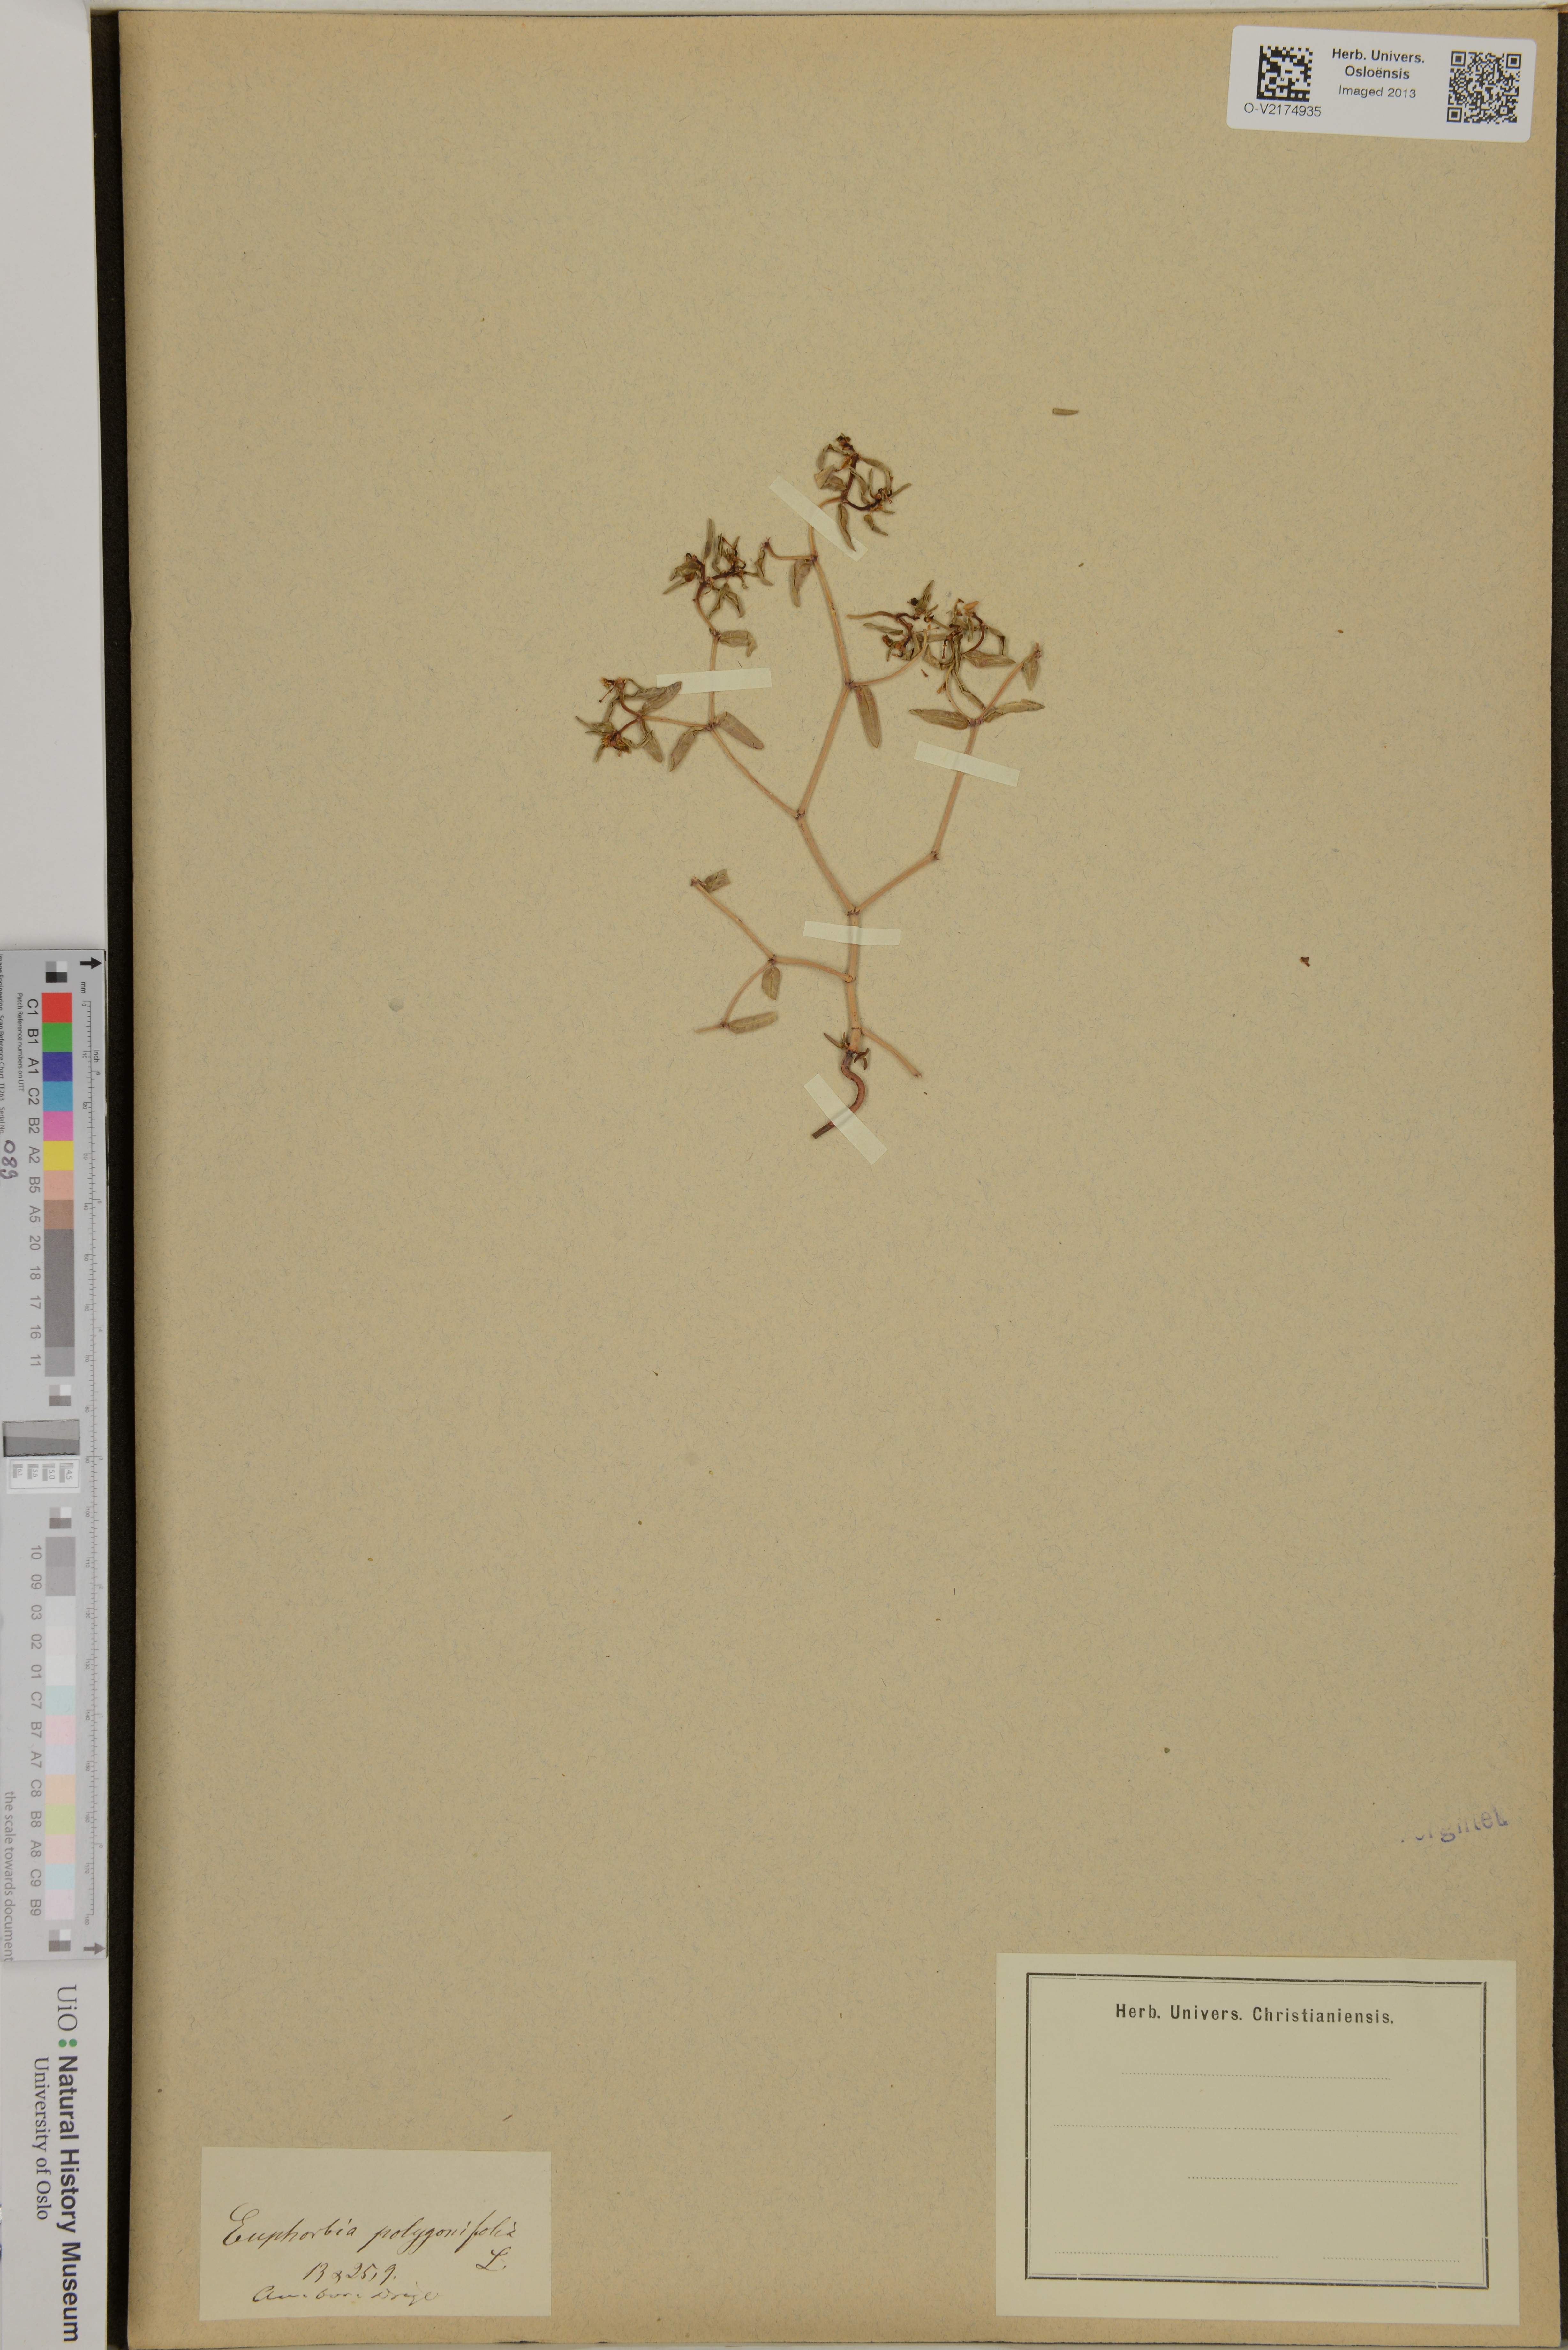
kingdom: Plantae
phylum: Tracheophyta
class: Magnoliopsida
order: Malpighiales
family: Euphorbiaceae
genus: Euphorbia
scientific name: Euphorbia polygonifolia
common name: Knotweed spurge
